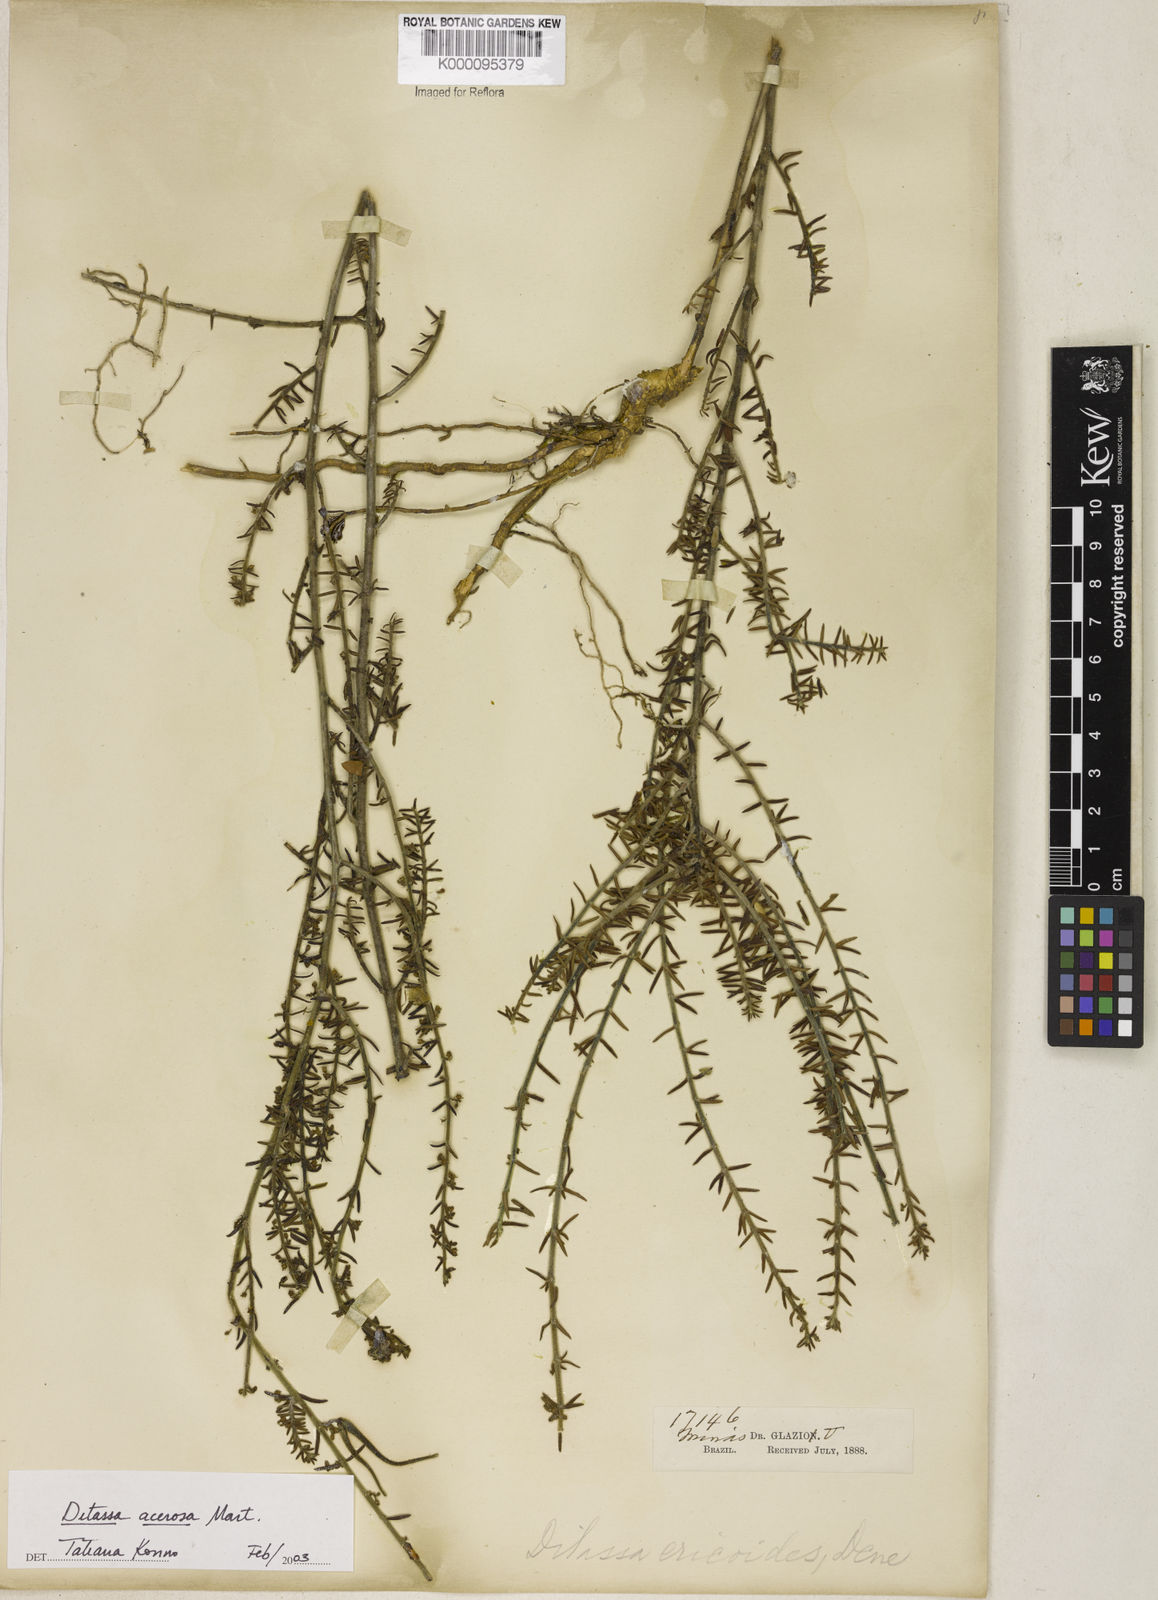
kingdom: Plantae
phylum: Tracheophyta
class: Magnoliopsida
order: Gentianales
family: Apocynaceae
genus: Minaria
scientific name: Minaria acerosa
